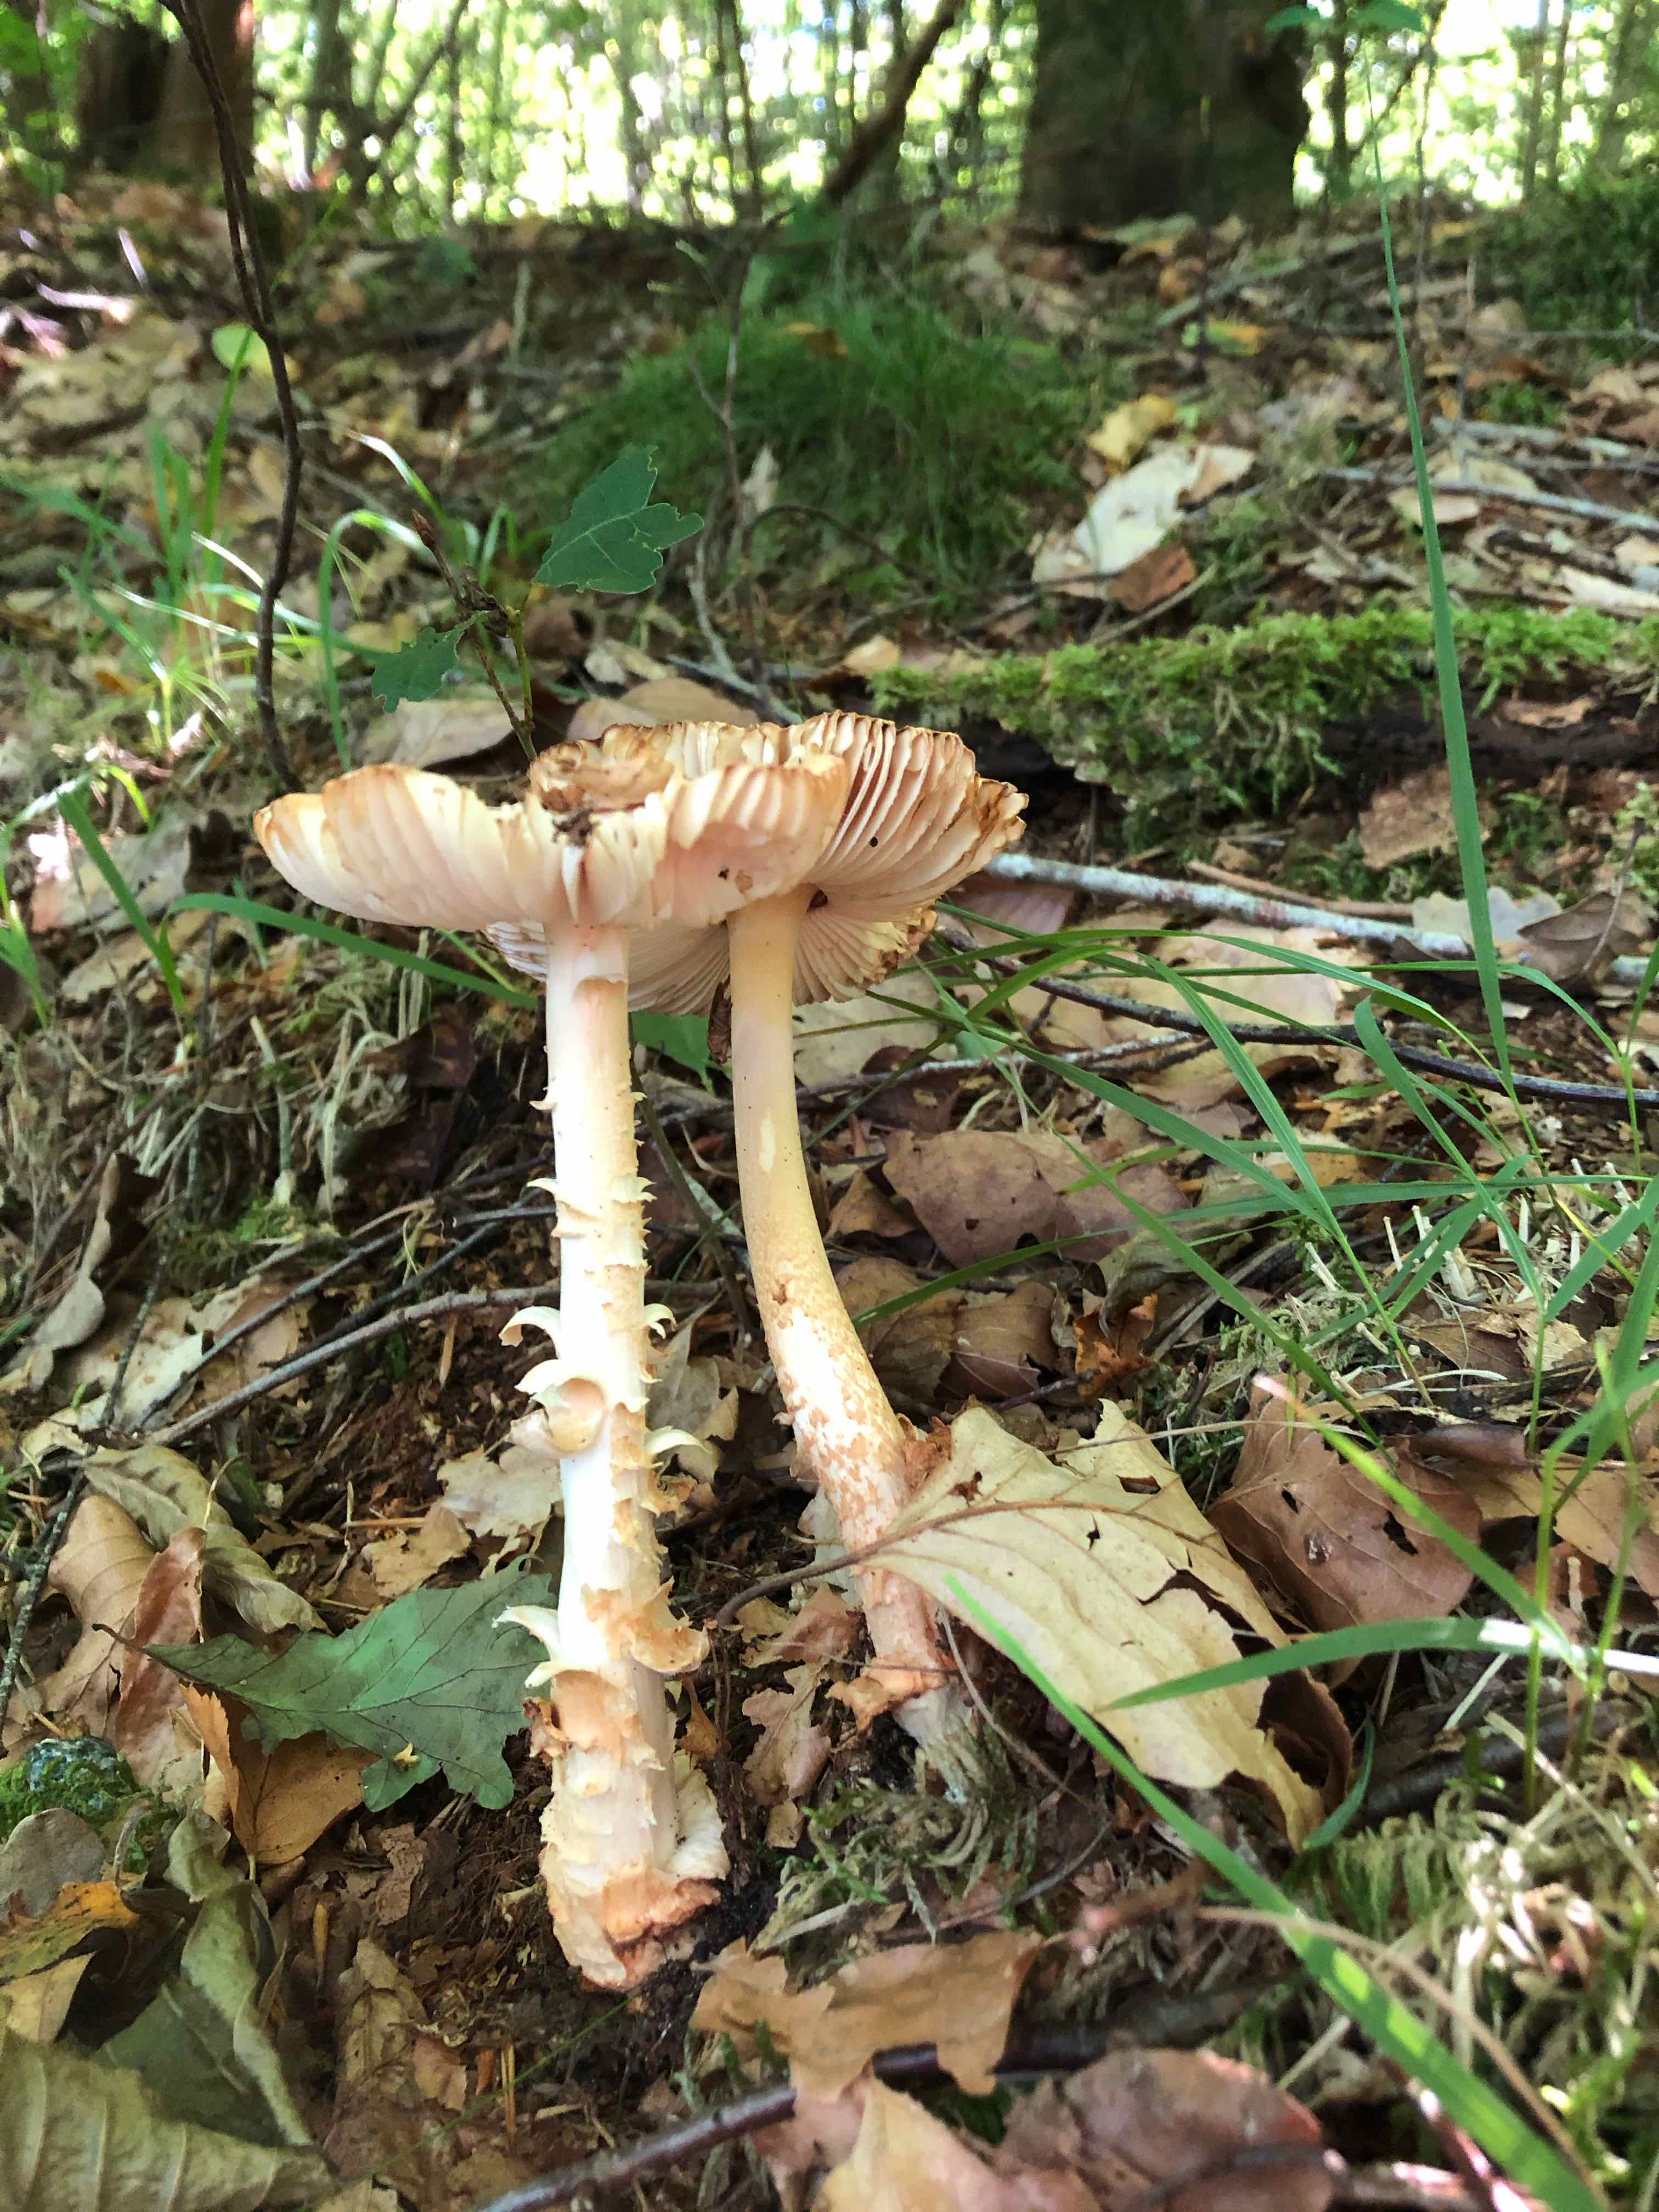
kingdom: Fungi
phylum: Basidiomycota
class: Agaricomycetes
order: Agaricales
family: Amanitaceae
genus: Amanita
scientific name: Amanita
